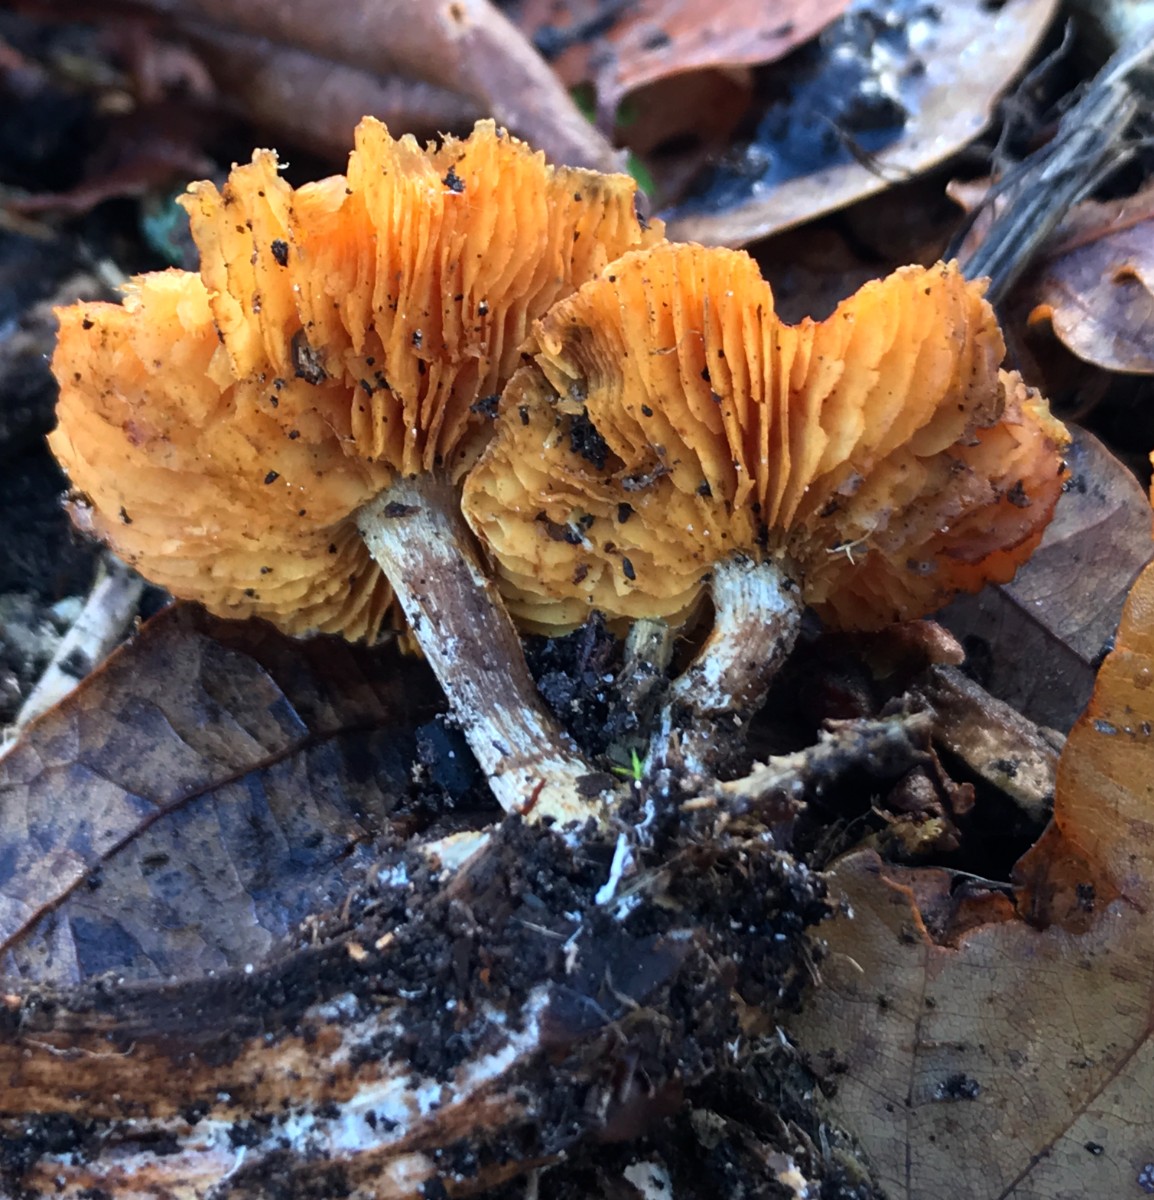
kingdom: Fungi
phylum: Basidiomycota
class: Agaricomycetes
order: Agaricales
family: Hymenogastraceae
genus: Gymnopilus
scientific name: Gymnopilus penetrans
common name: plettet flammehat
